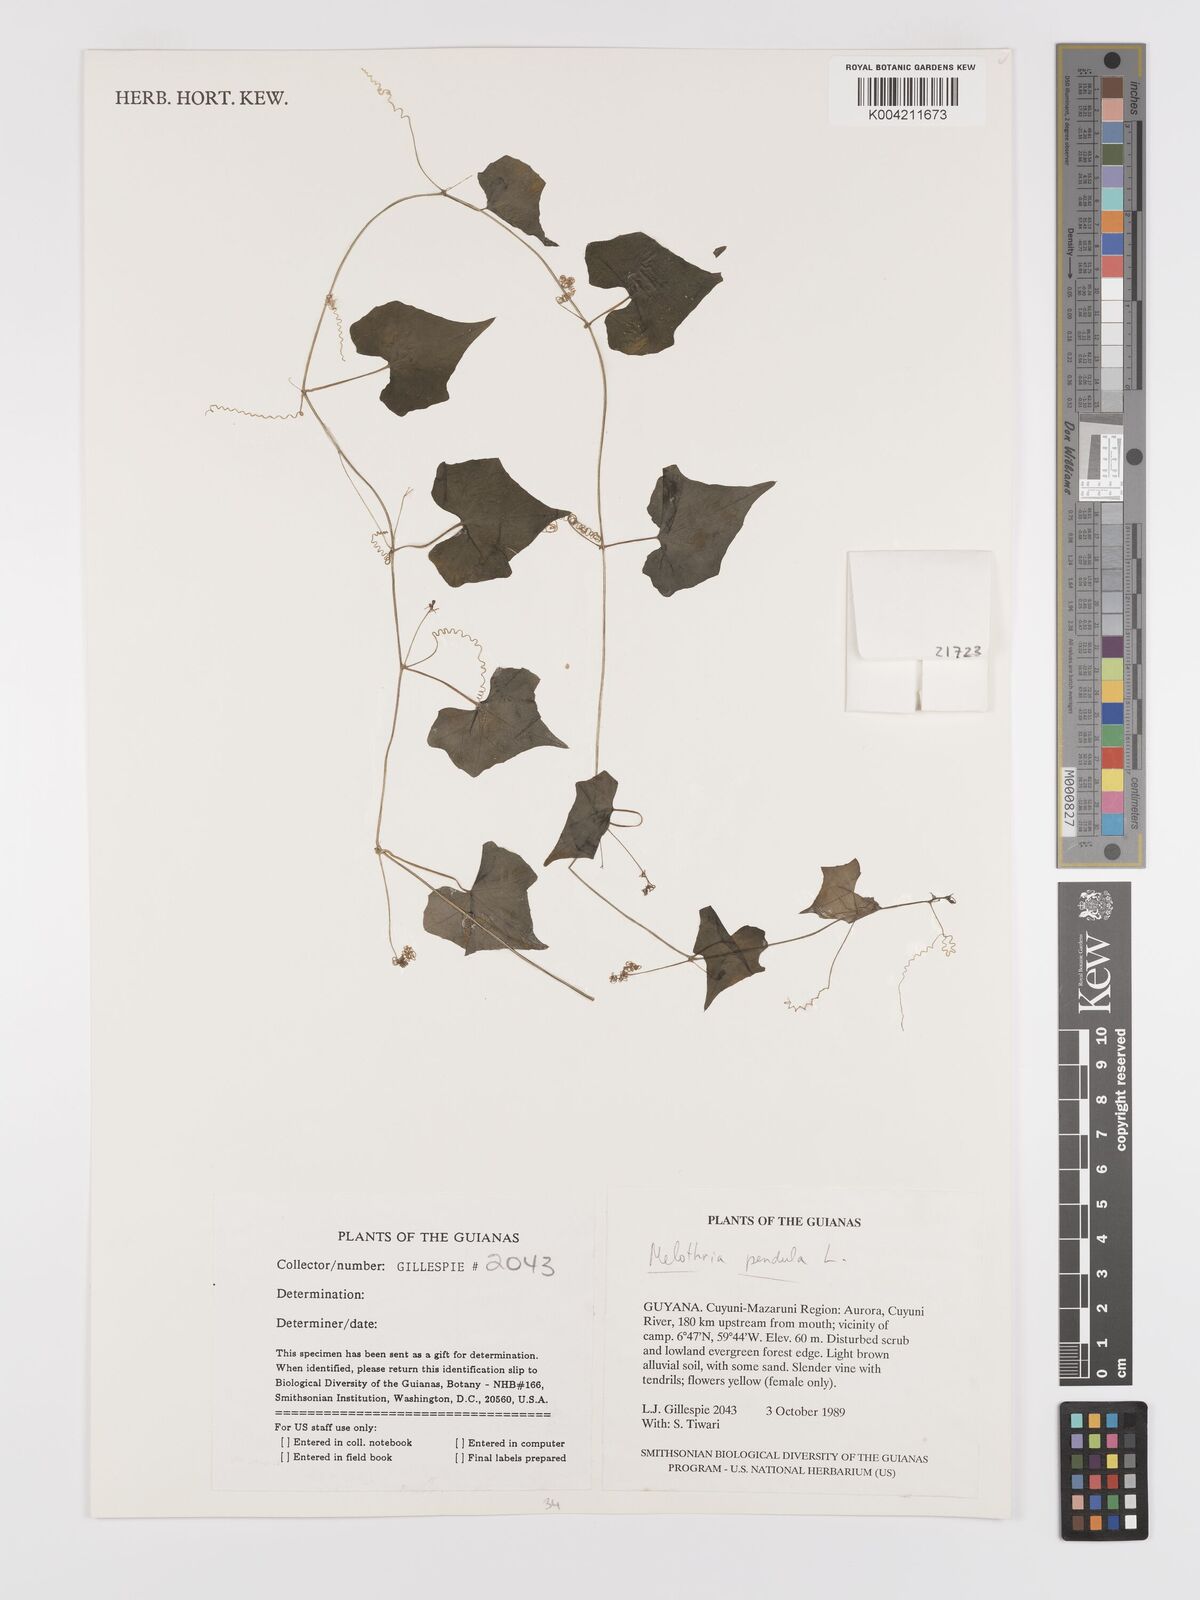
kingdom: Plantae
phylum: Tracheophyta
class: Magnoliopsida
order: Cucurbitales
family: Cucurbitaceae
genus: Melothria
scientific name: Melothria pendula
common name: Creeping-cucumber
